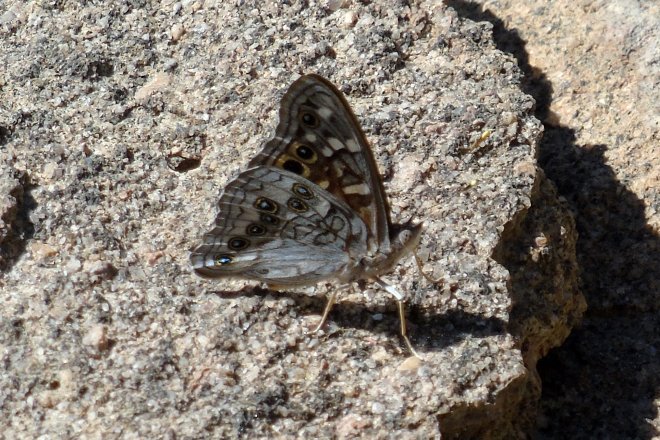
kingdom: Animalia
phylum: Arthropoda
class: Insecta
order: Lepidoptera
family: Nymphalidae
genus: Asterocampa
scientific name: Asterocampa leilia
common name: Empress Leilia
